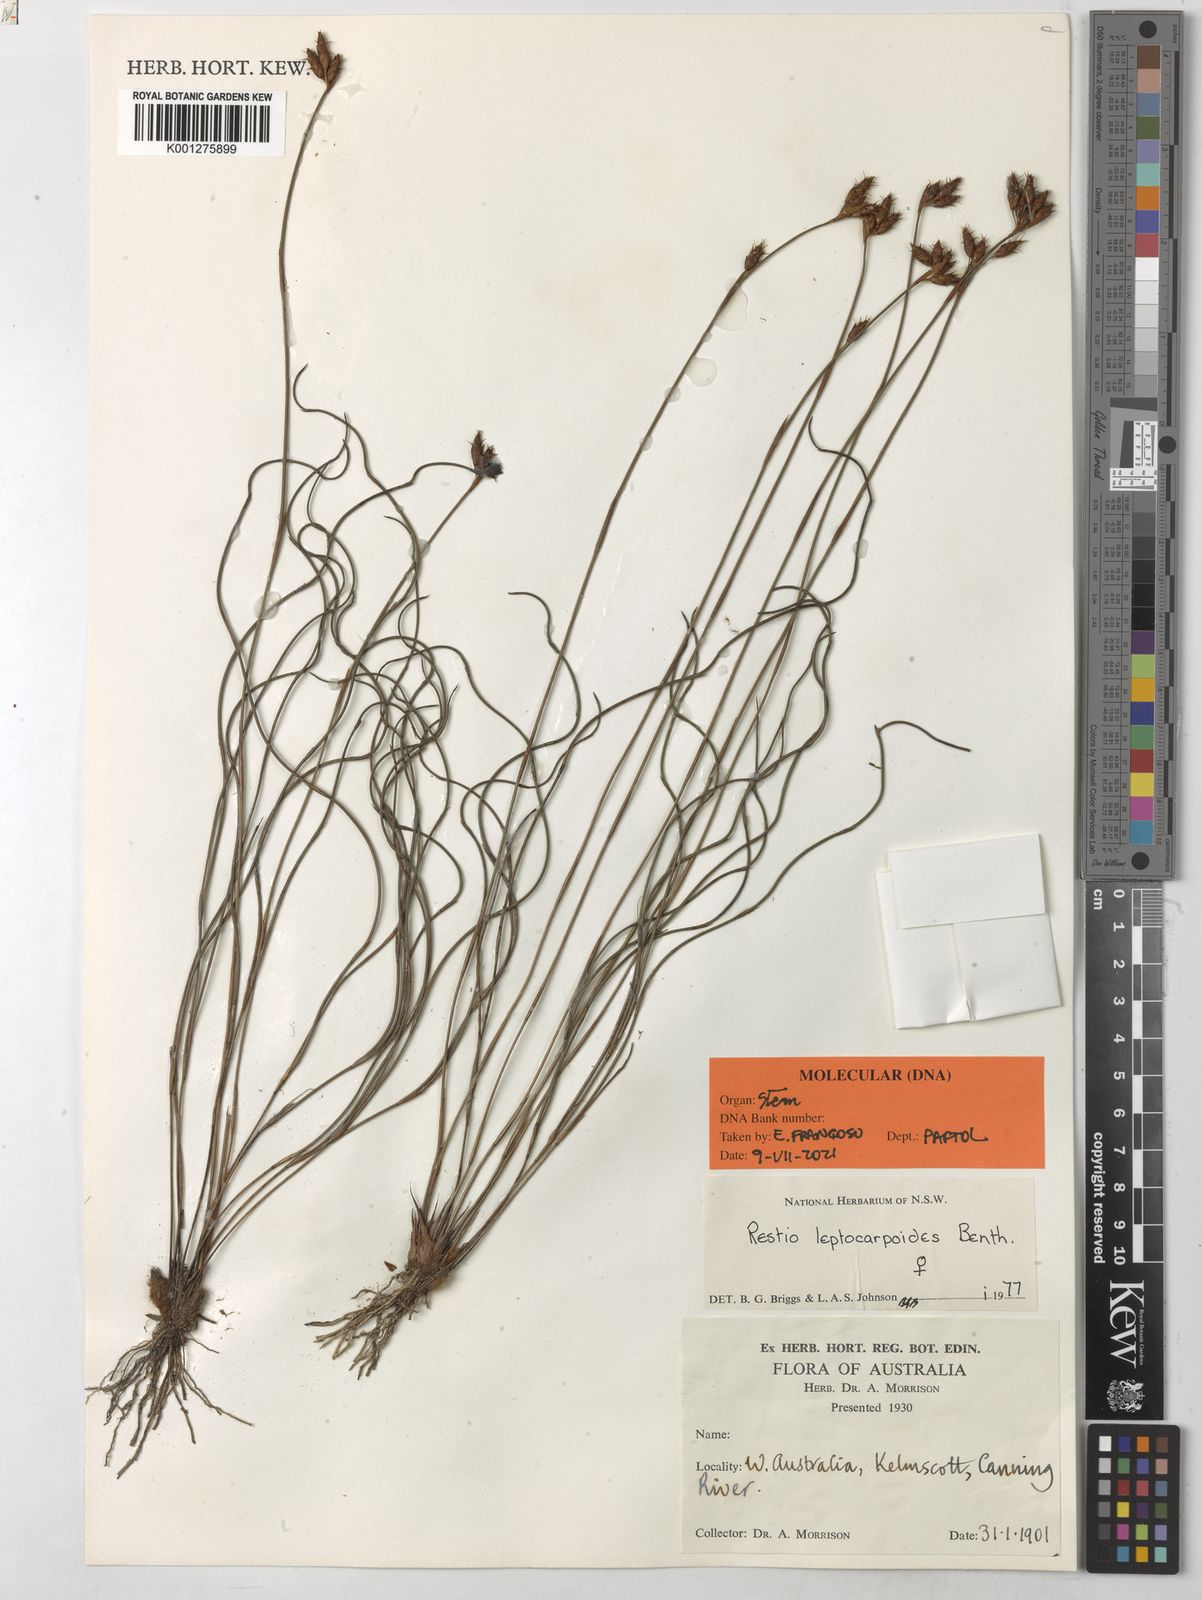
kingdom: Plantae
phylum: Tracheophyta
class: Liliopsida
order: Poales
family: Restionaceae
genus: Cytogonidium
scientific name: Cytogonidium leptocarpoides
